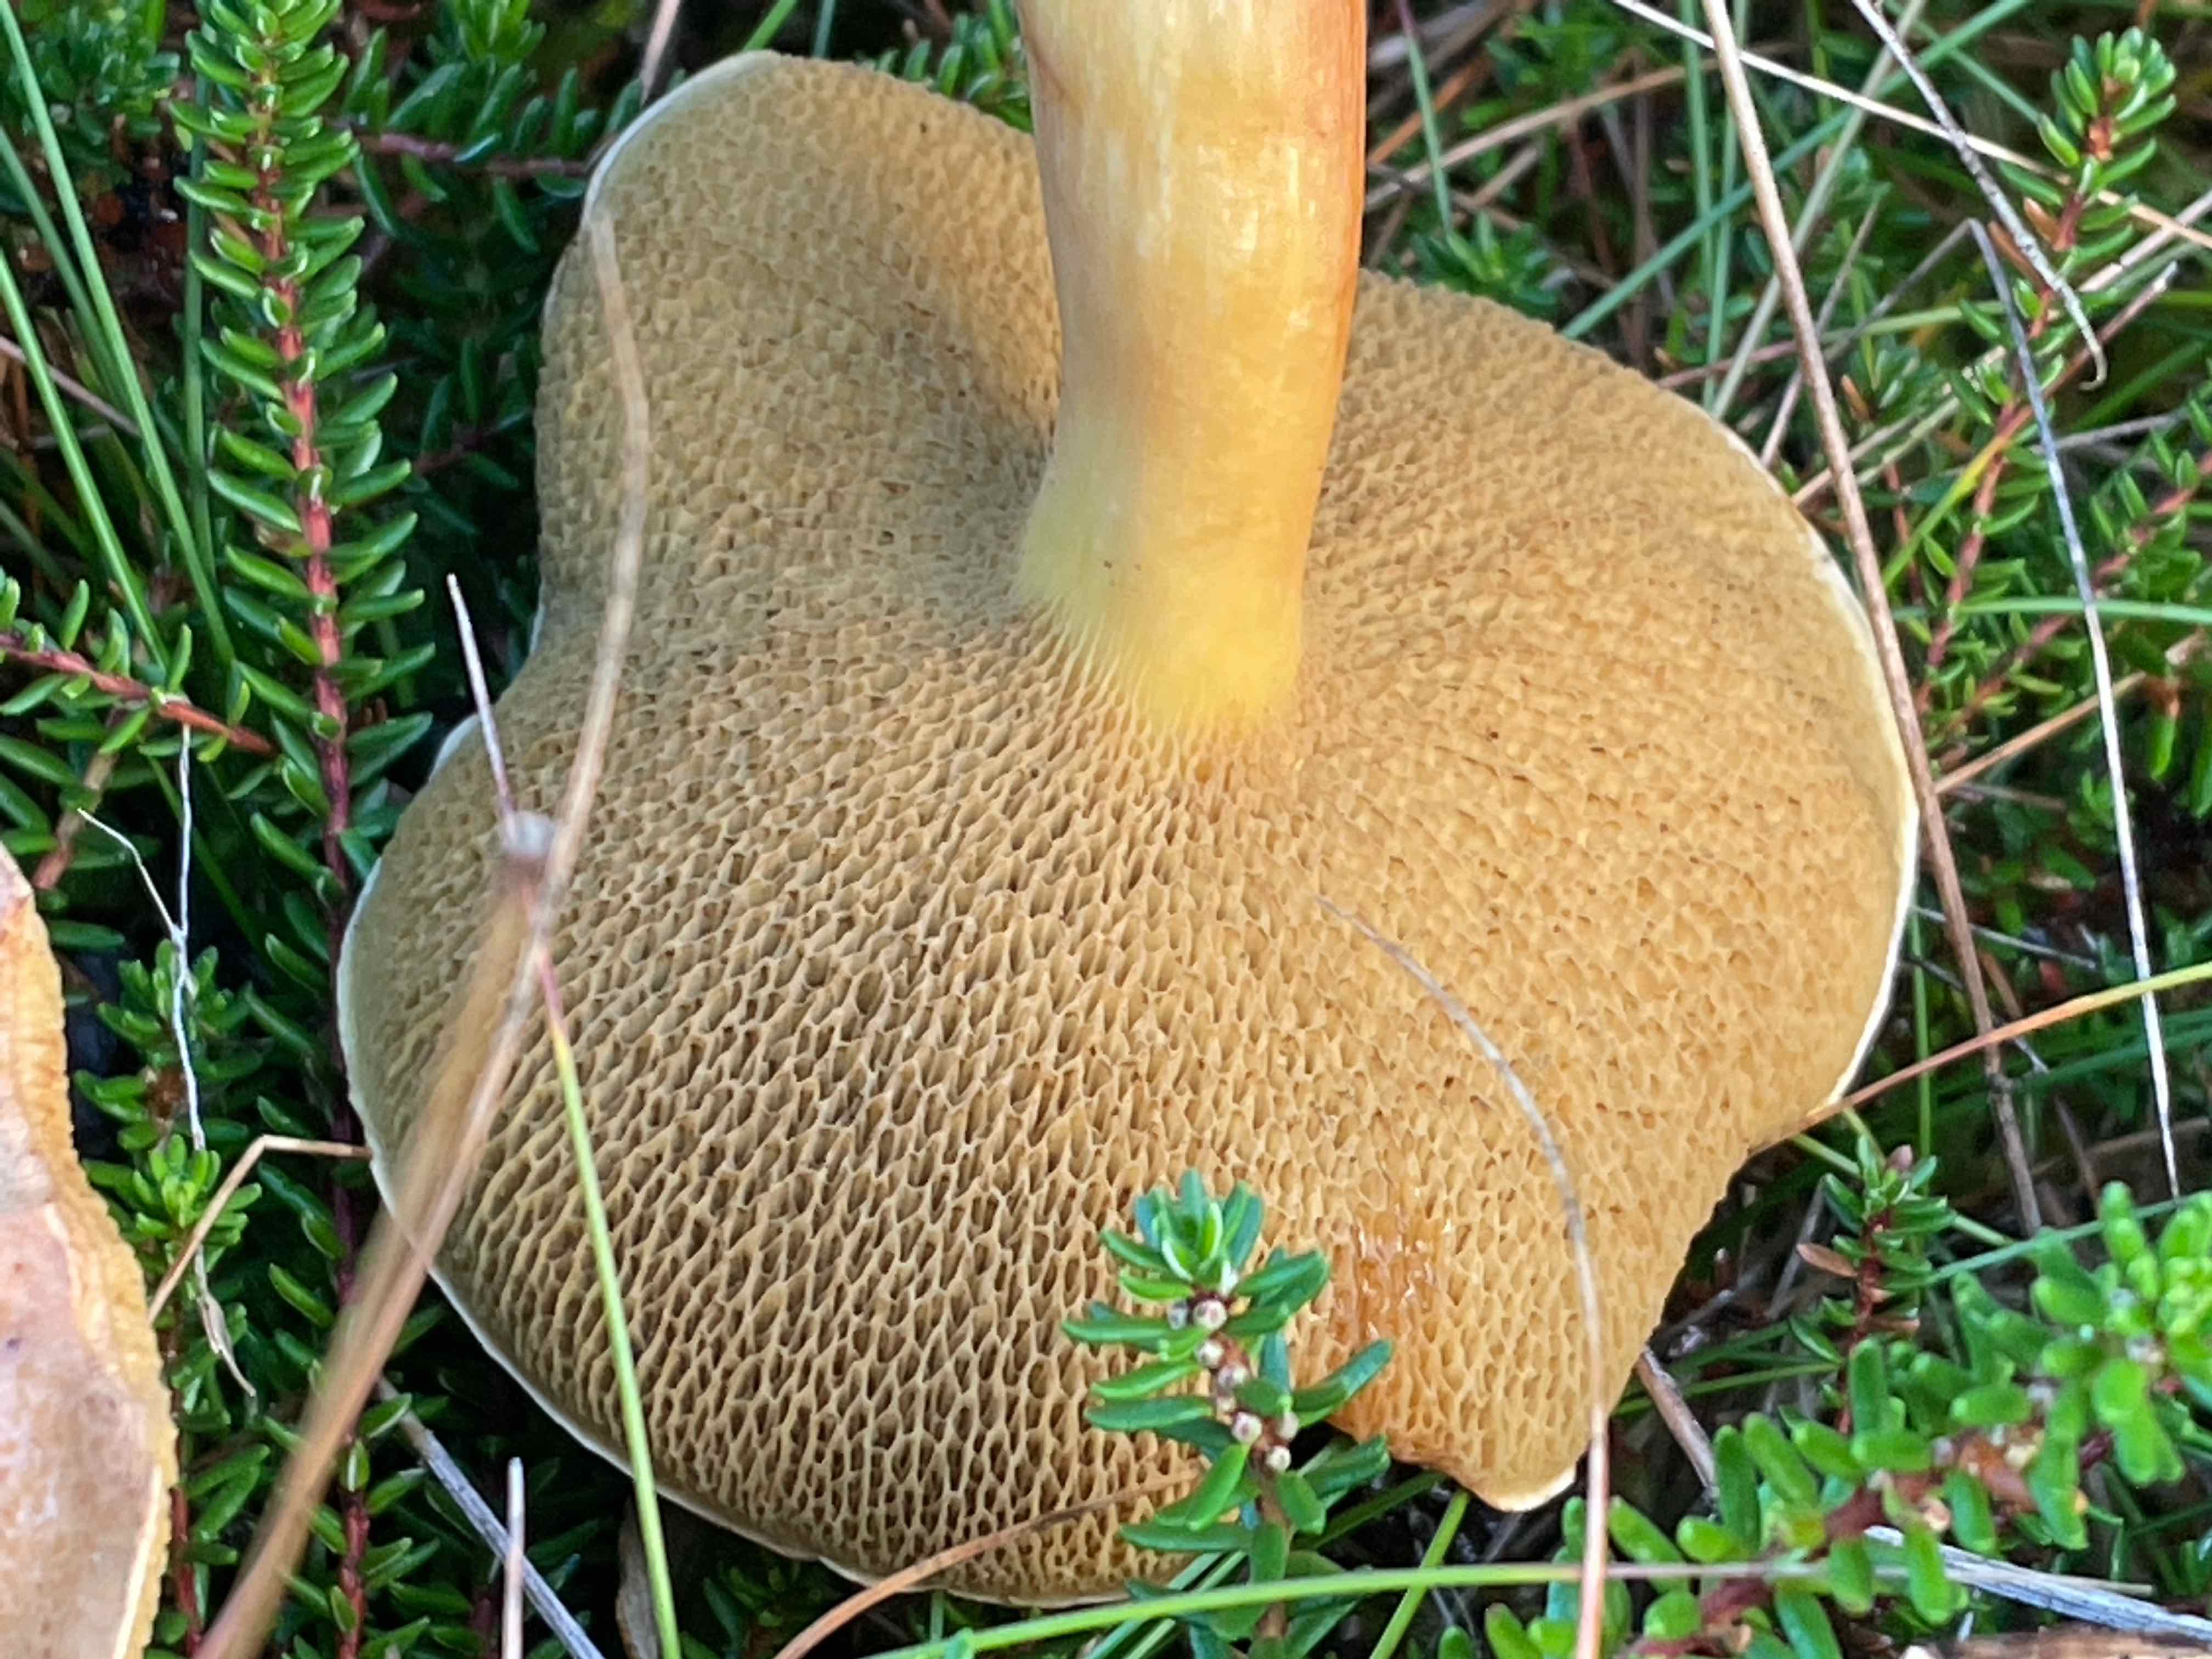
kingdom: Fungi
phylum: Basidiomycota
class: Agaricomycetes
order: Boletales
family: Suillaceae
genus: Suillus
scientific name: Suillus variegatus
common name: broget slimrørhat
